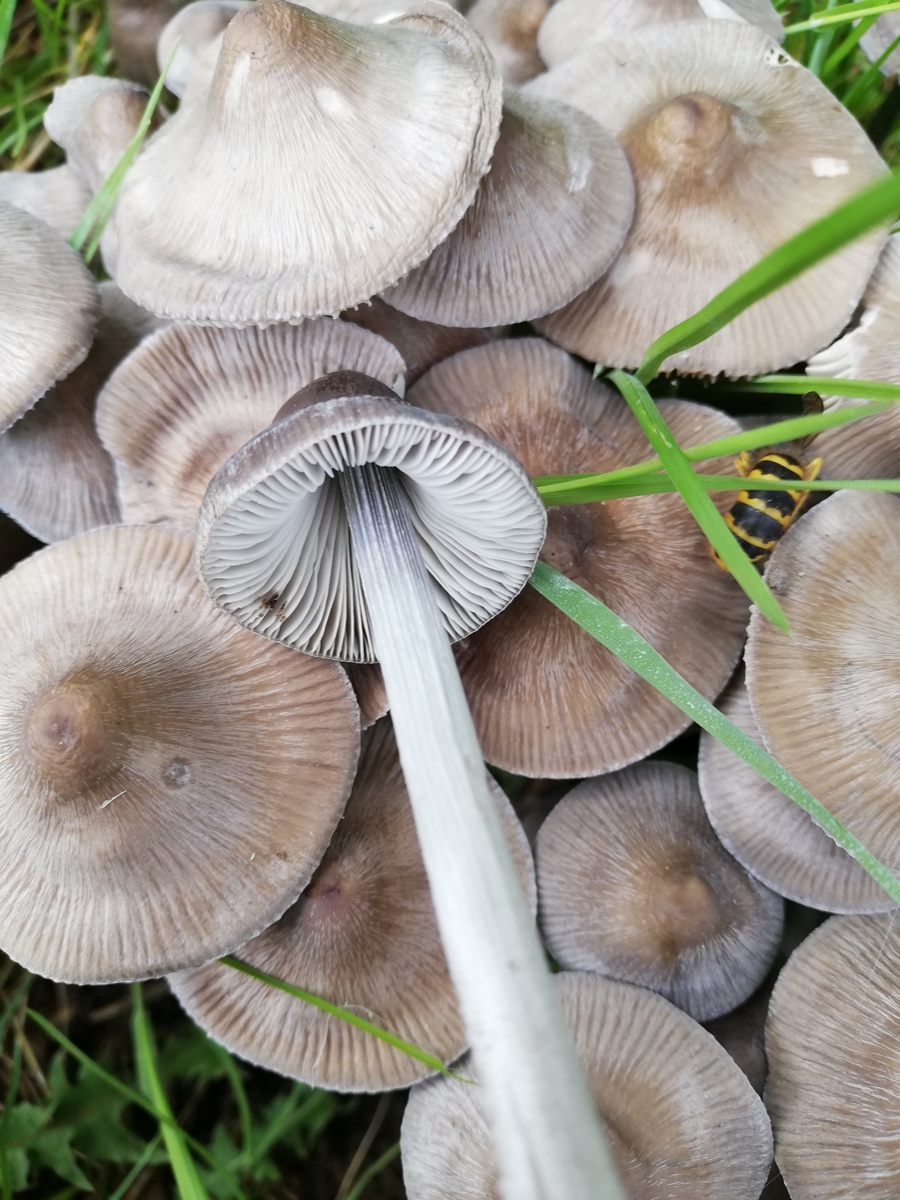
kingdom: Fungi
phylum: Basidiomycota
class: Agaricomycetes
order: Agaricales
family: Mycenaceae
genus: Mycena
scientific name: Mycena polygramma
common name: mangestribet huesvamp
